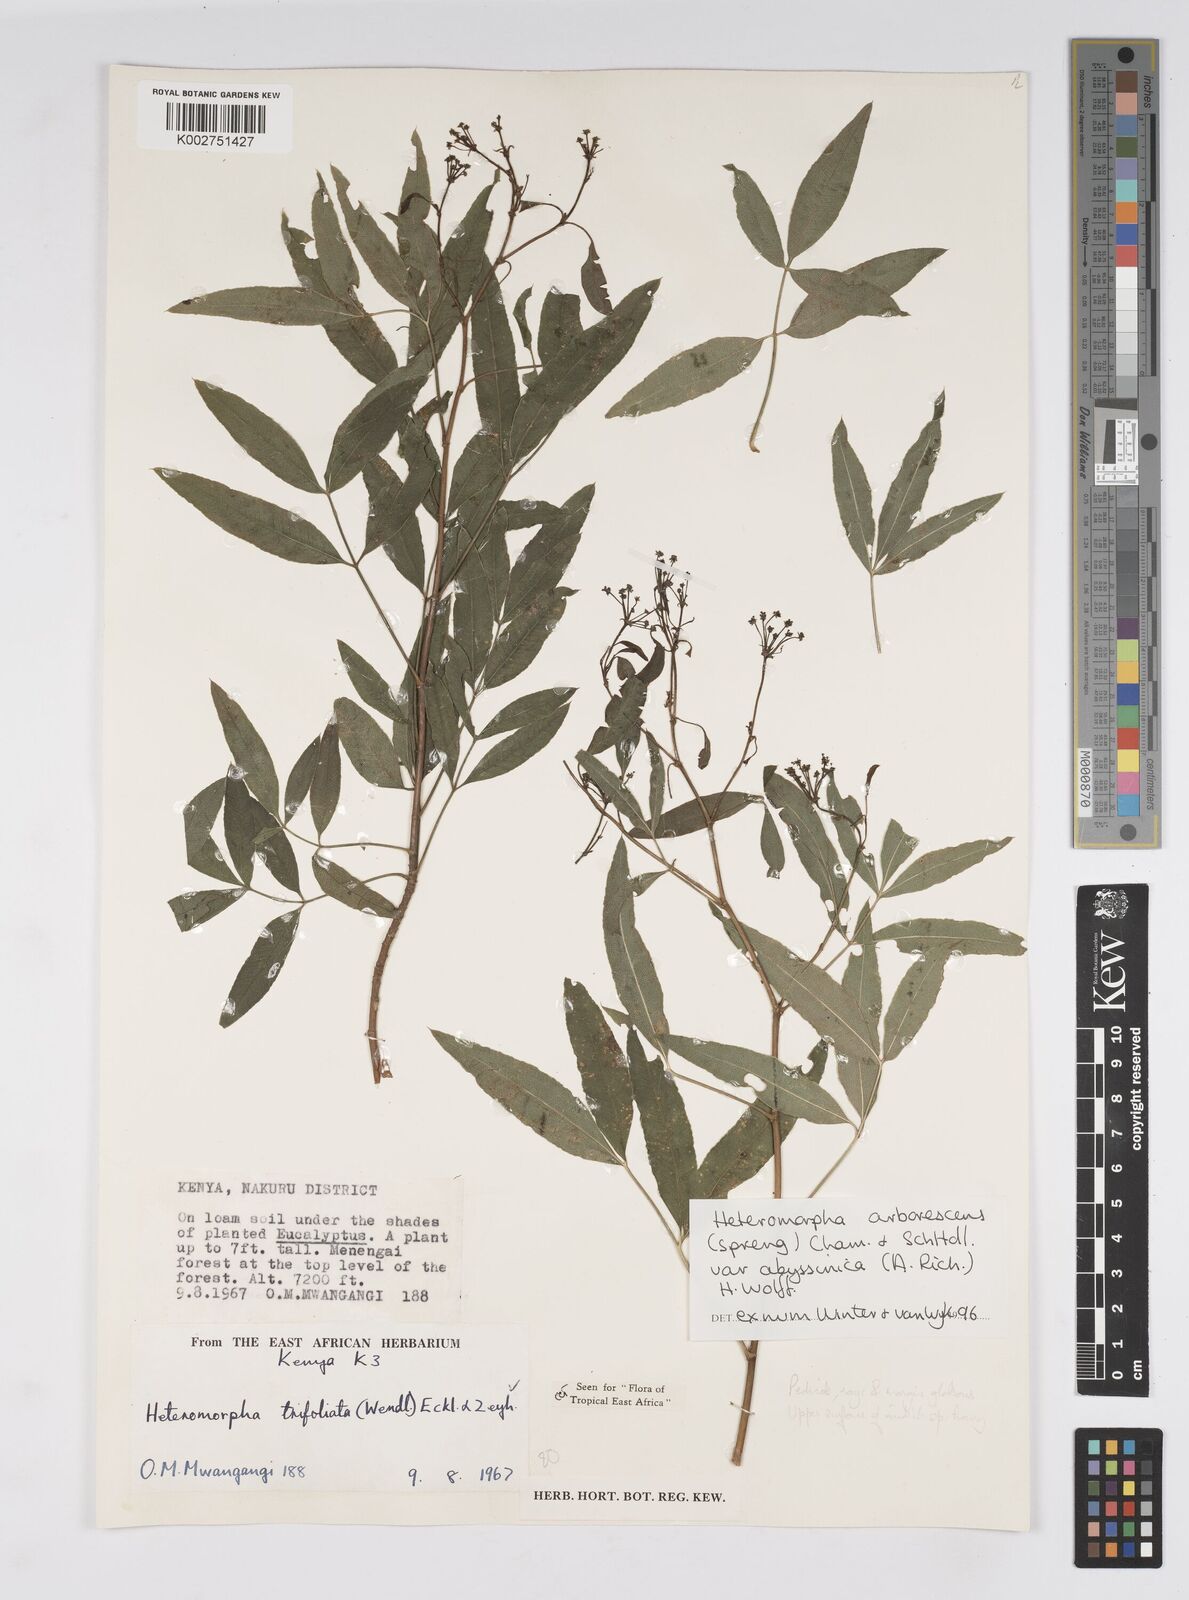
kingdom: Plantae
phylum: Tracheophyta
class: Magnoliopsida
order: Apiales
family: Apiaceae
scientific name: Apiaceae
